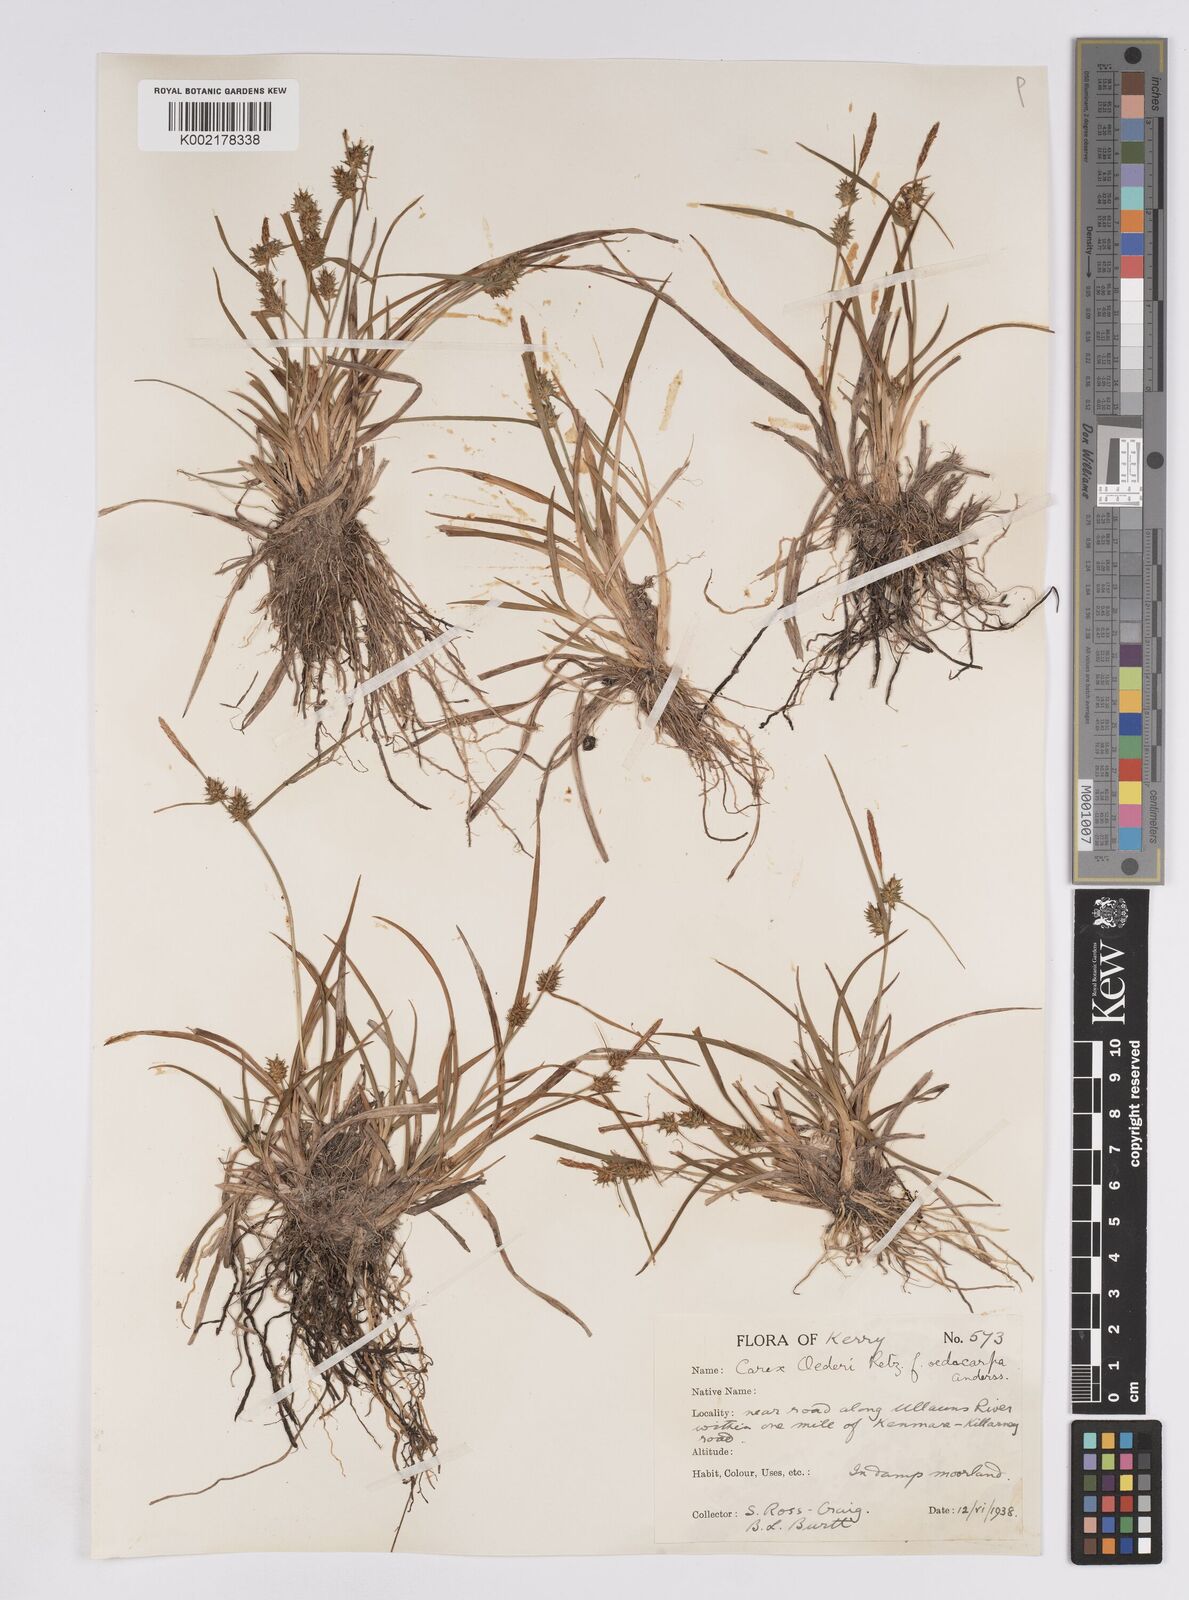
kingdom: Plantae
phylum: Tracheophyta
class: Liliopsida
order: Poales
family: Cyperaceae
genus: Carex
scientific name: Carex demissa
